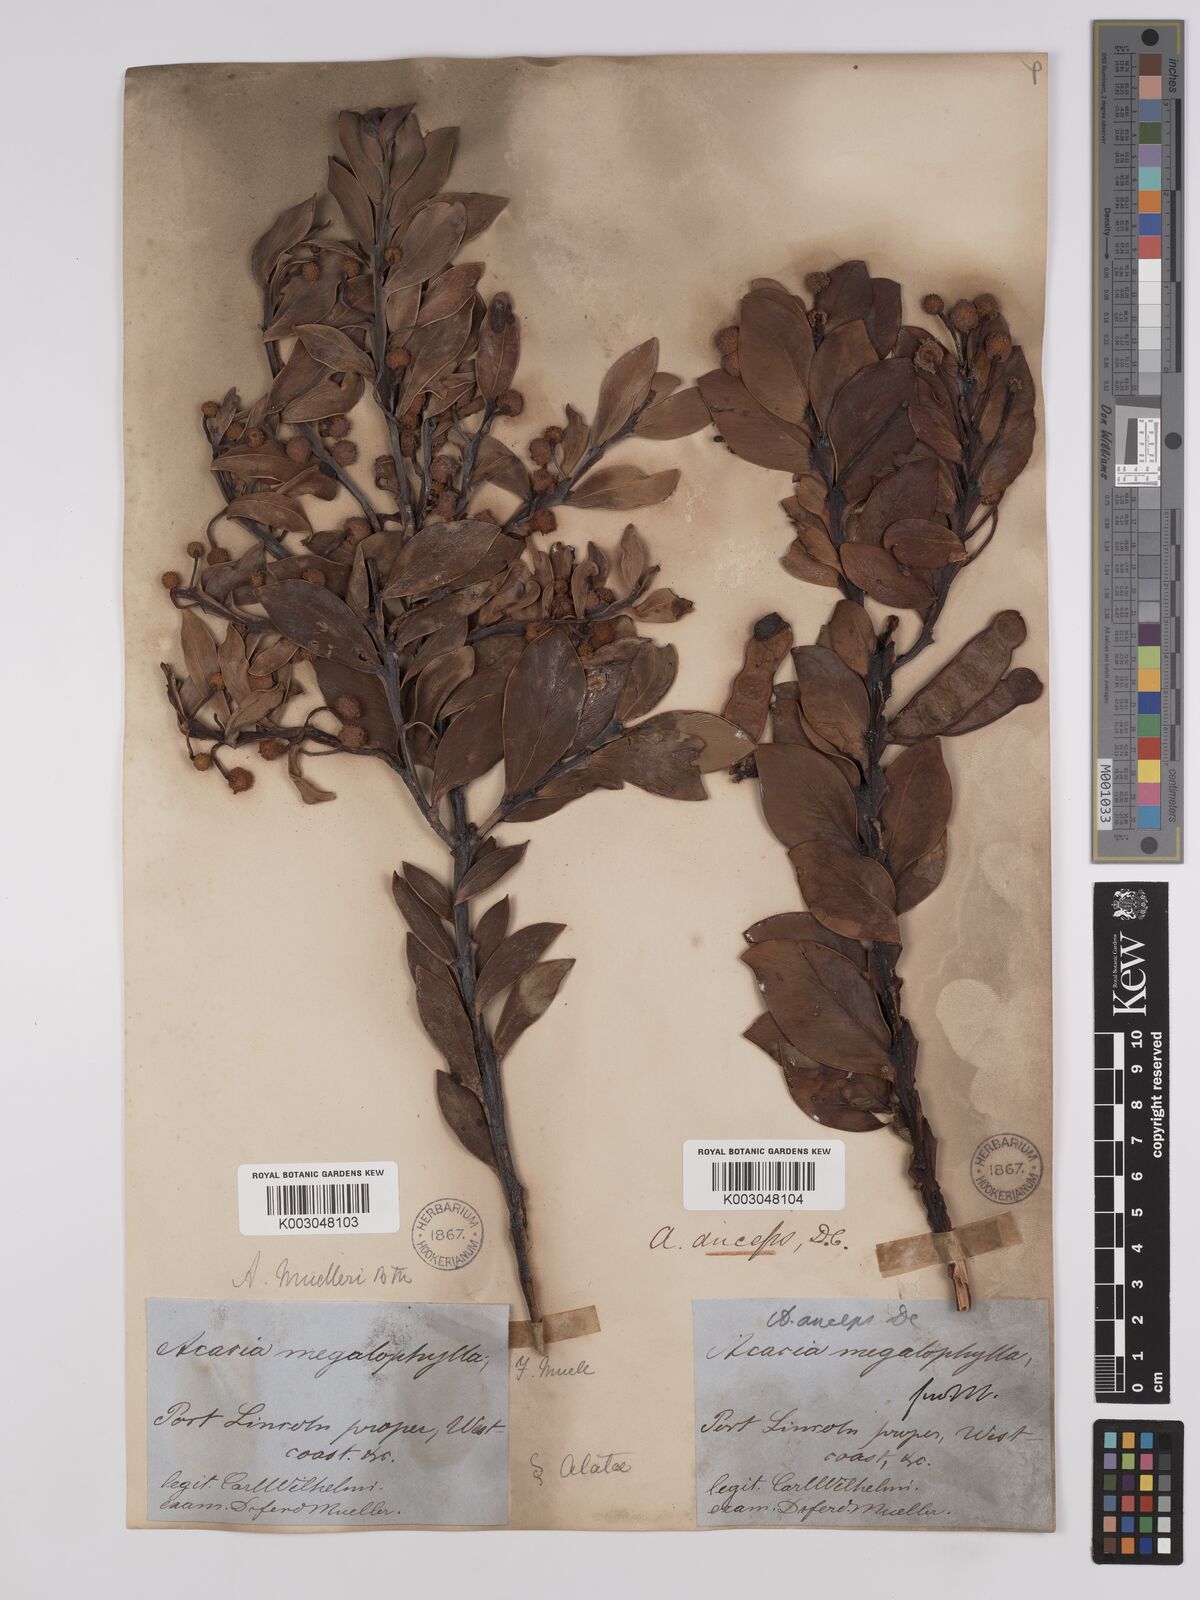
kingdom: Plantae
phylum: Tracheophyta
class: Magnoliopsida
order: Fabales
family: Fabaceae
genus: Acacia
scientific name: Acacia anceps
